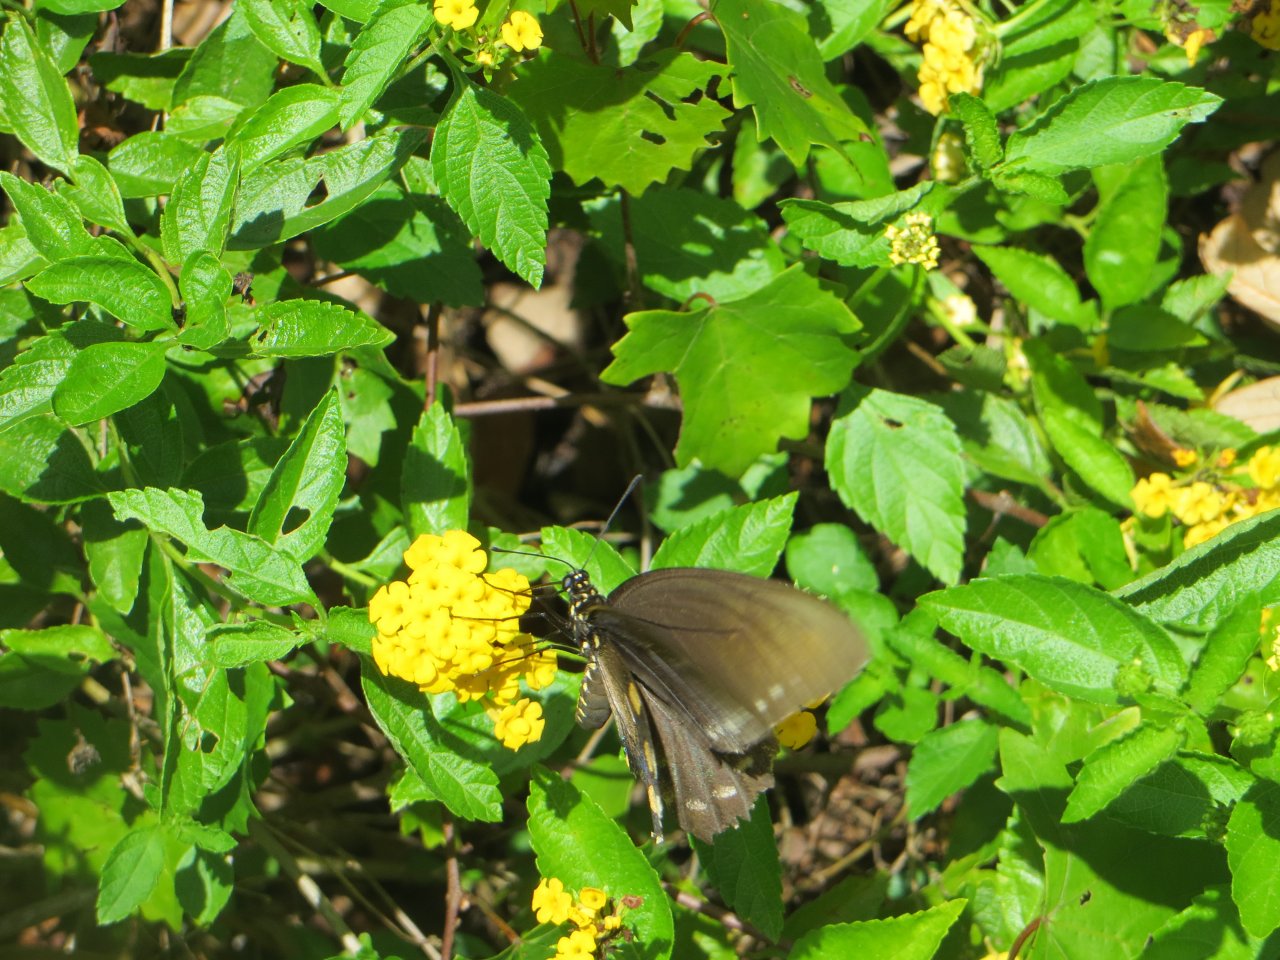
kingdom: Animalia
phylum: Arthropoda
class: Insecta
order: Lepidoptera
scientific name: Lepidoptera
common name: Butterflies
